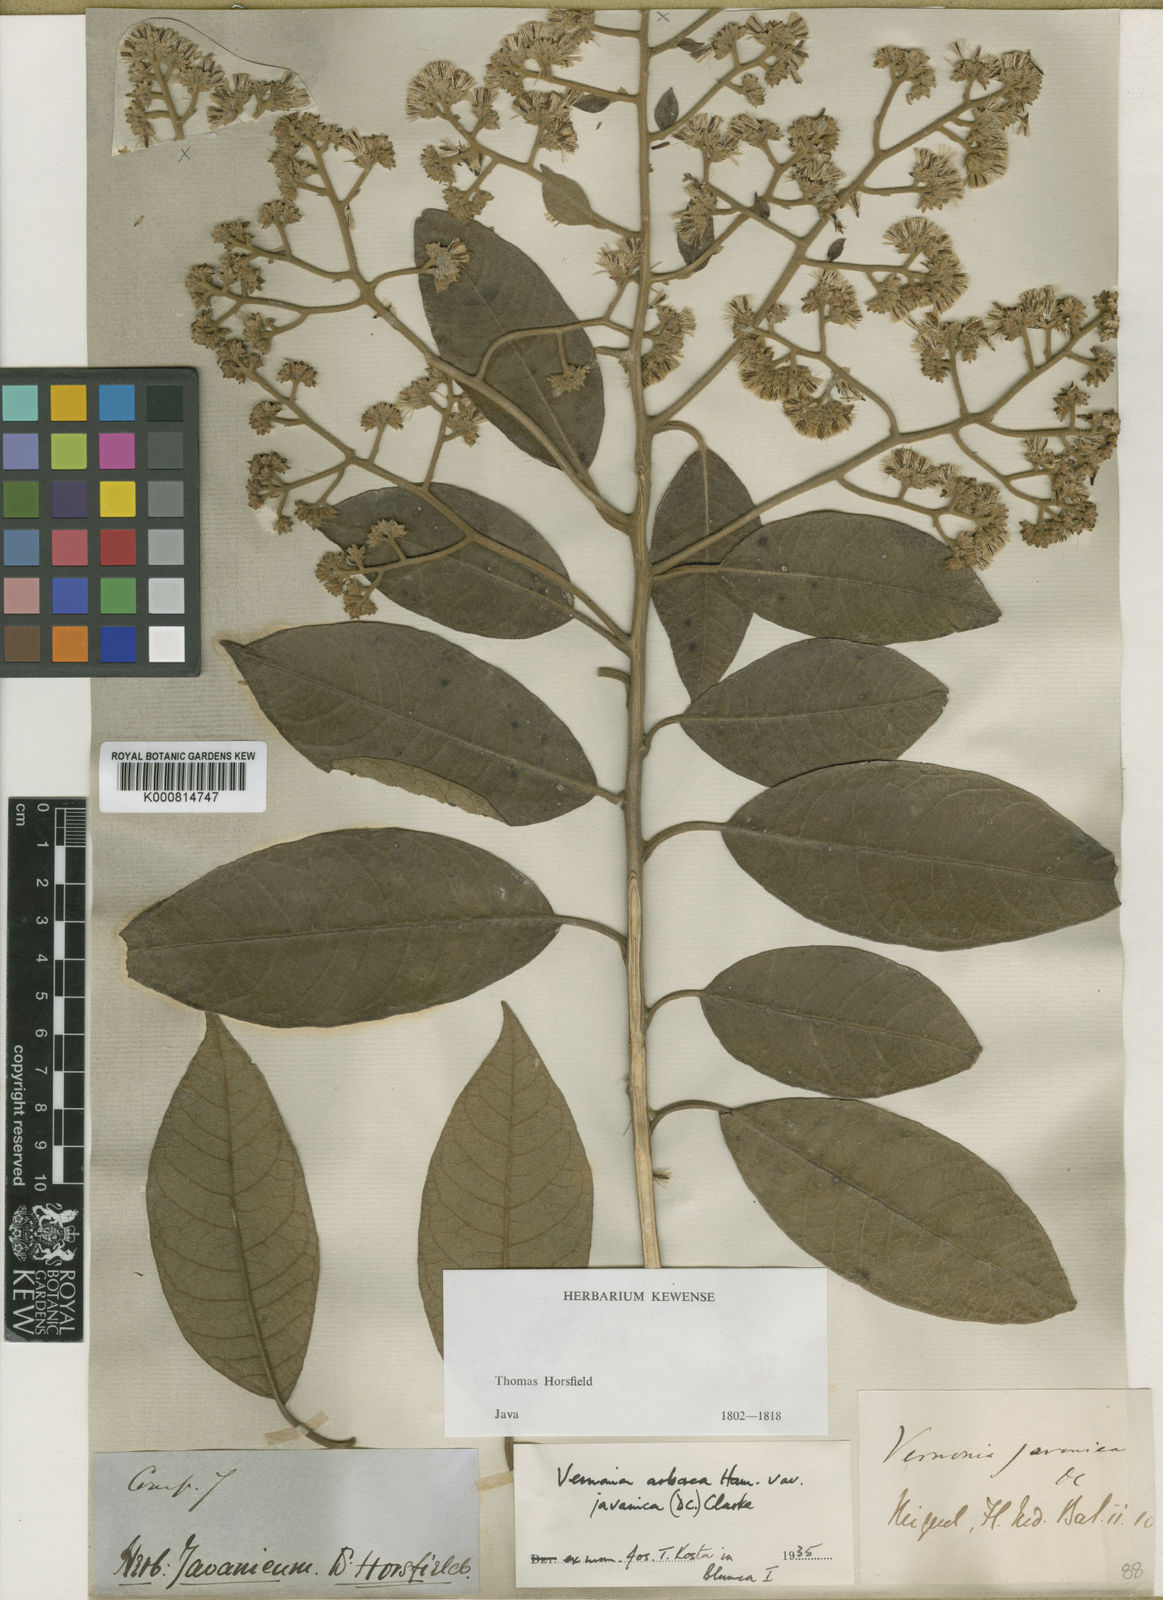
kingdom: Plantae
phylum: Tracheophyta
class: Magnoliopsida
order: Asterales
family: Asteraceae
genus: Strobocalyx
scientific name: Strobocalyx arborea
